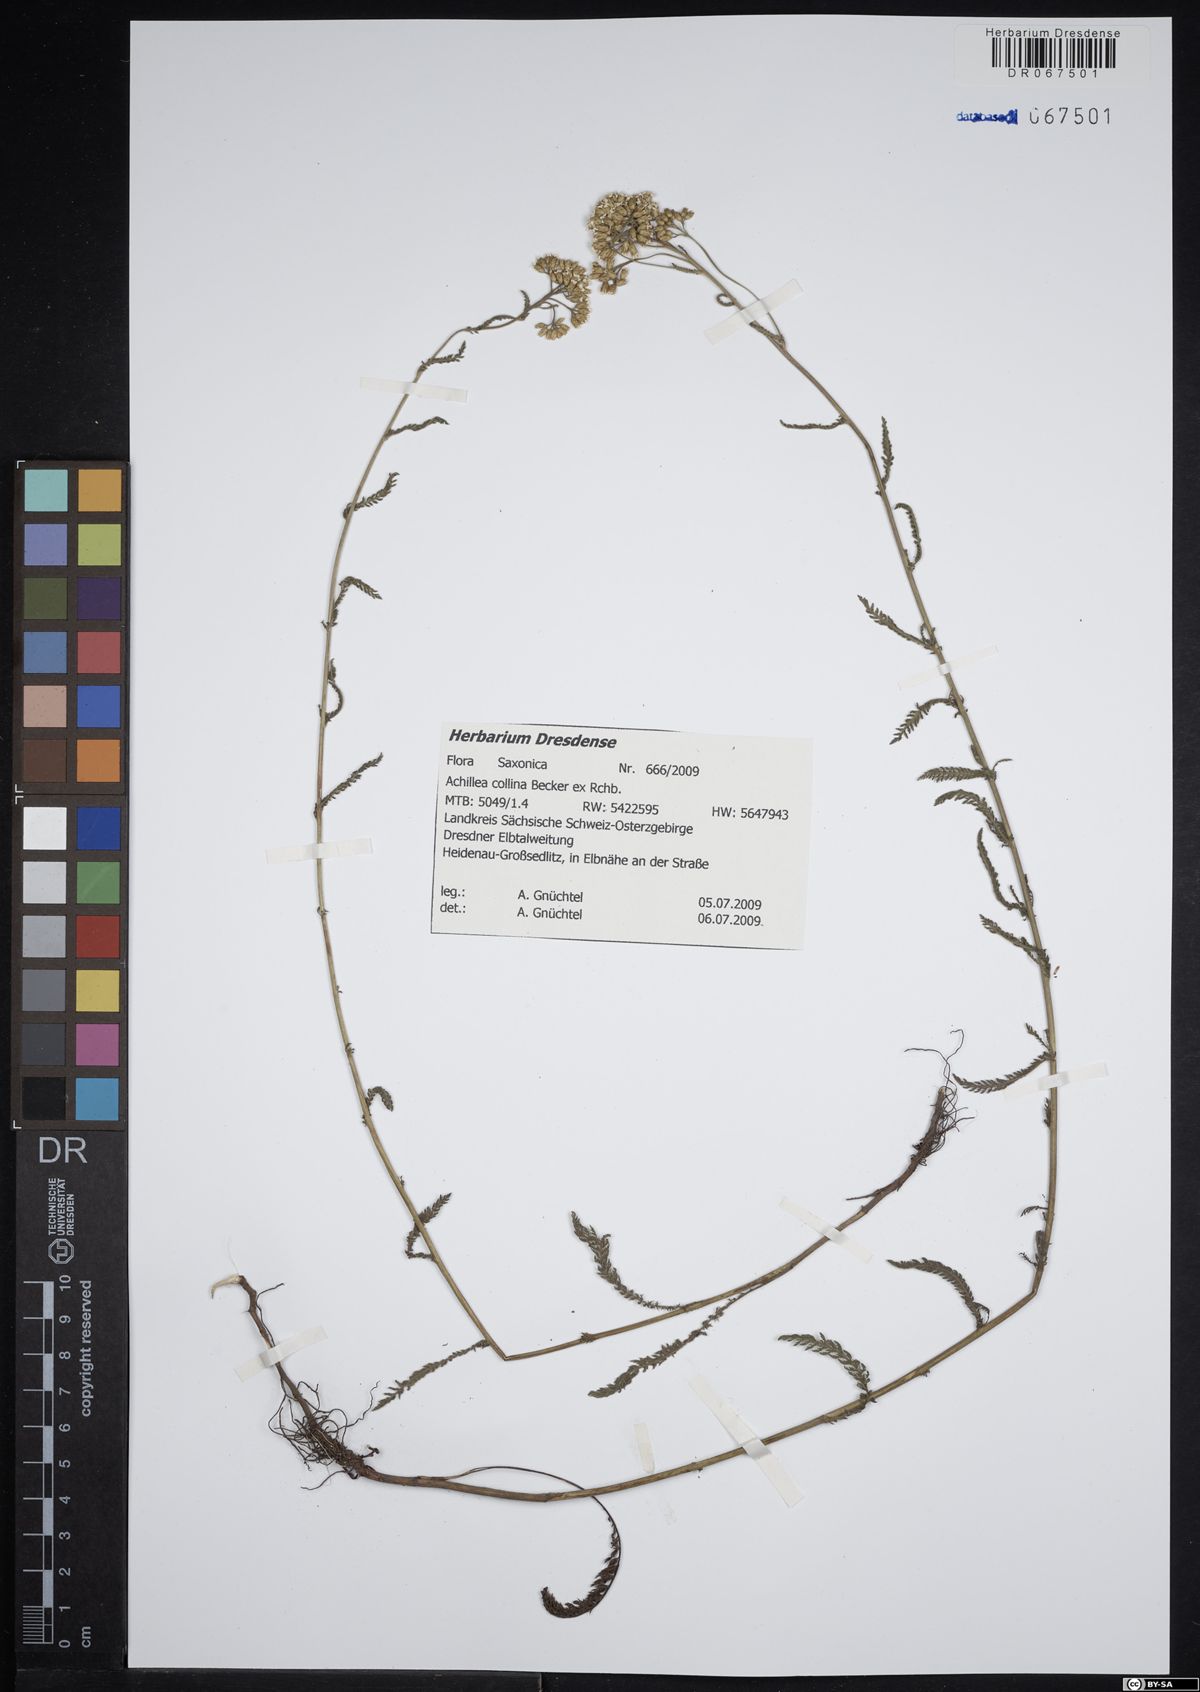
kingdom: Plantae
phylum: Tracheophyta
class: Magnoliopsida
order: Asterales
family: Asteraceae
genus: Achillea
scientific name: Achillea collina
